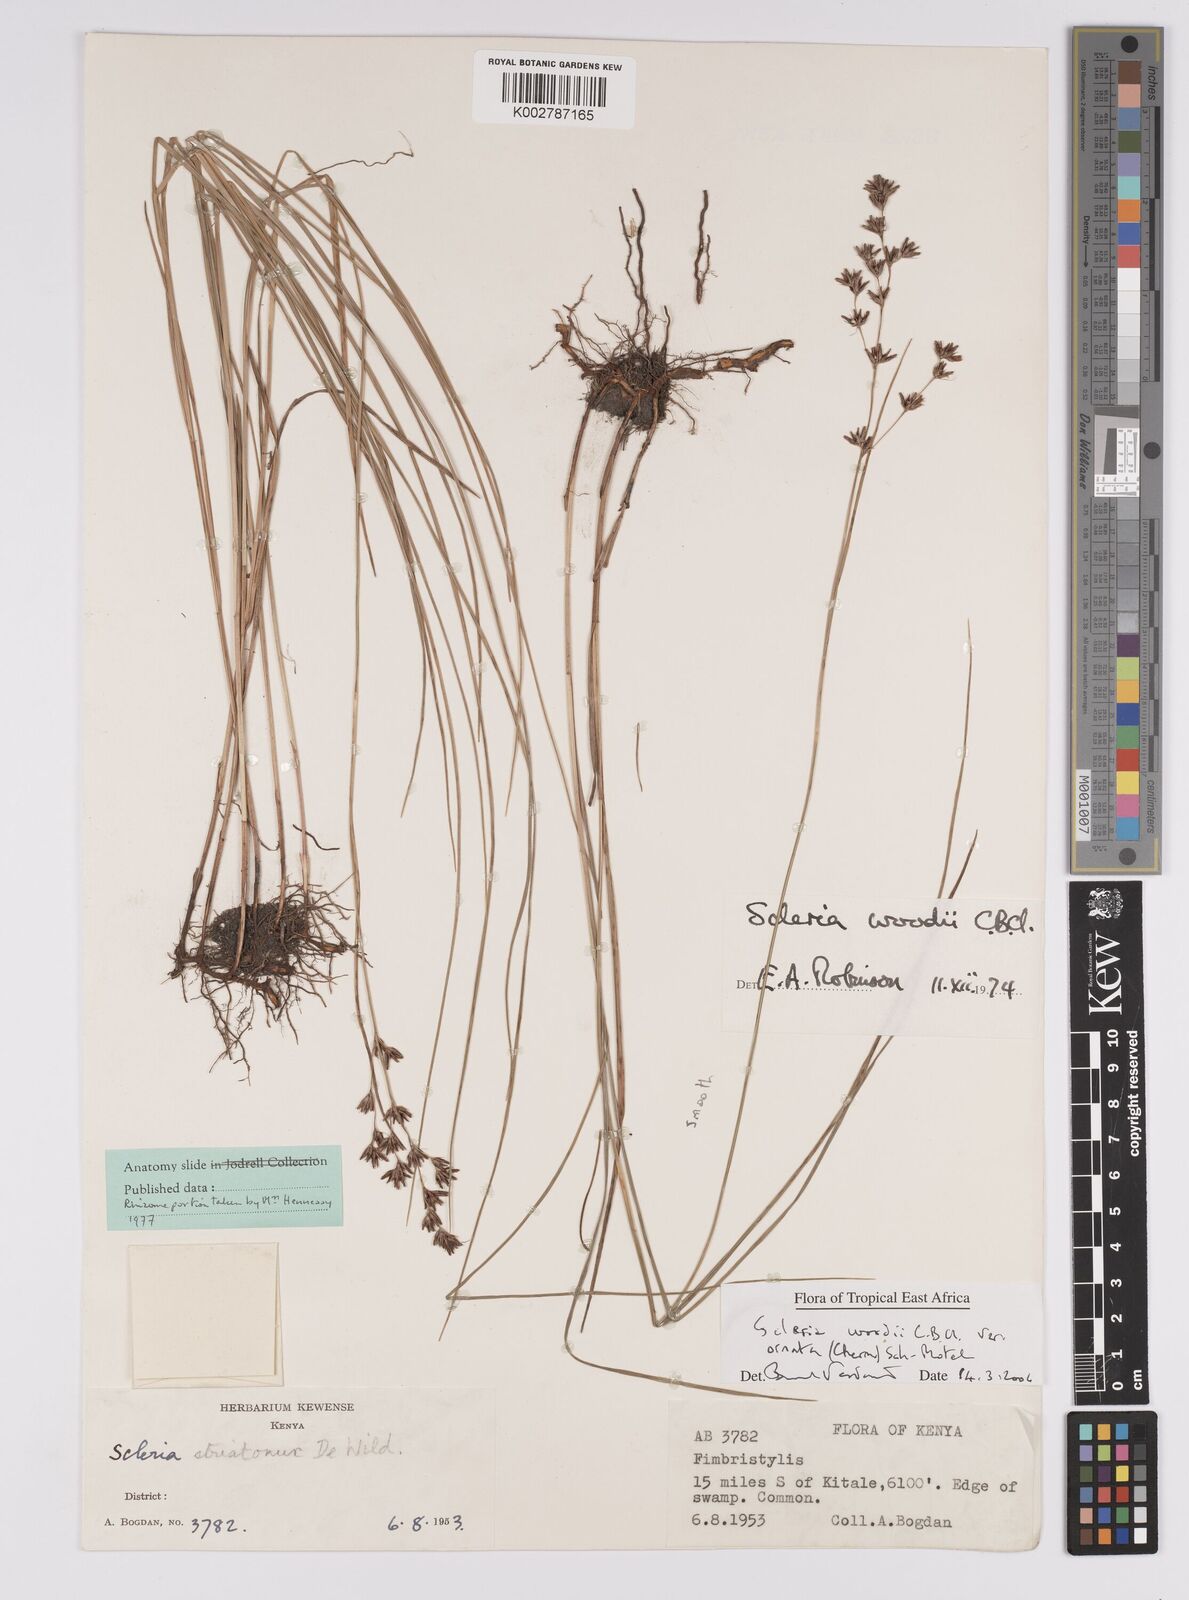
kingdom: Plantae
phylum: Tracheophyta
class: Liliopsida
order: Poales
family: Cyperaceae
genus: Scleria
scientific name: Scleria woodii
